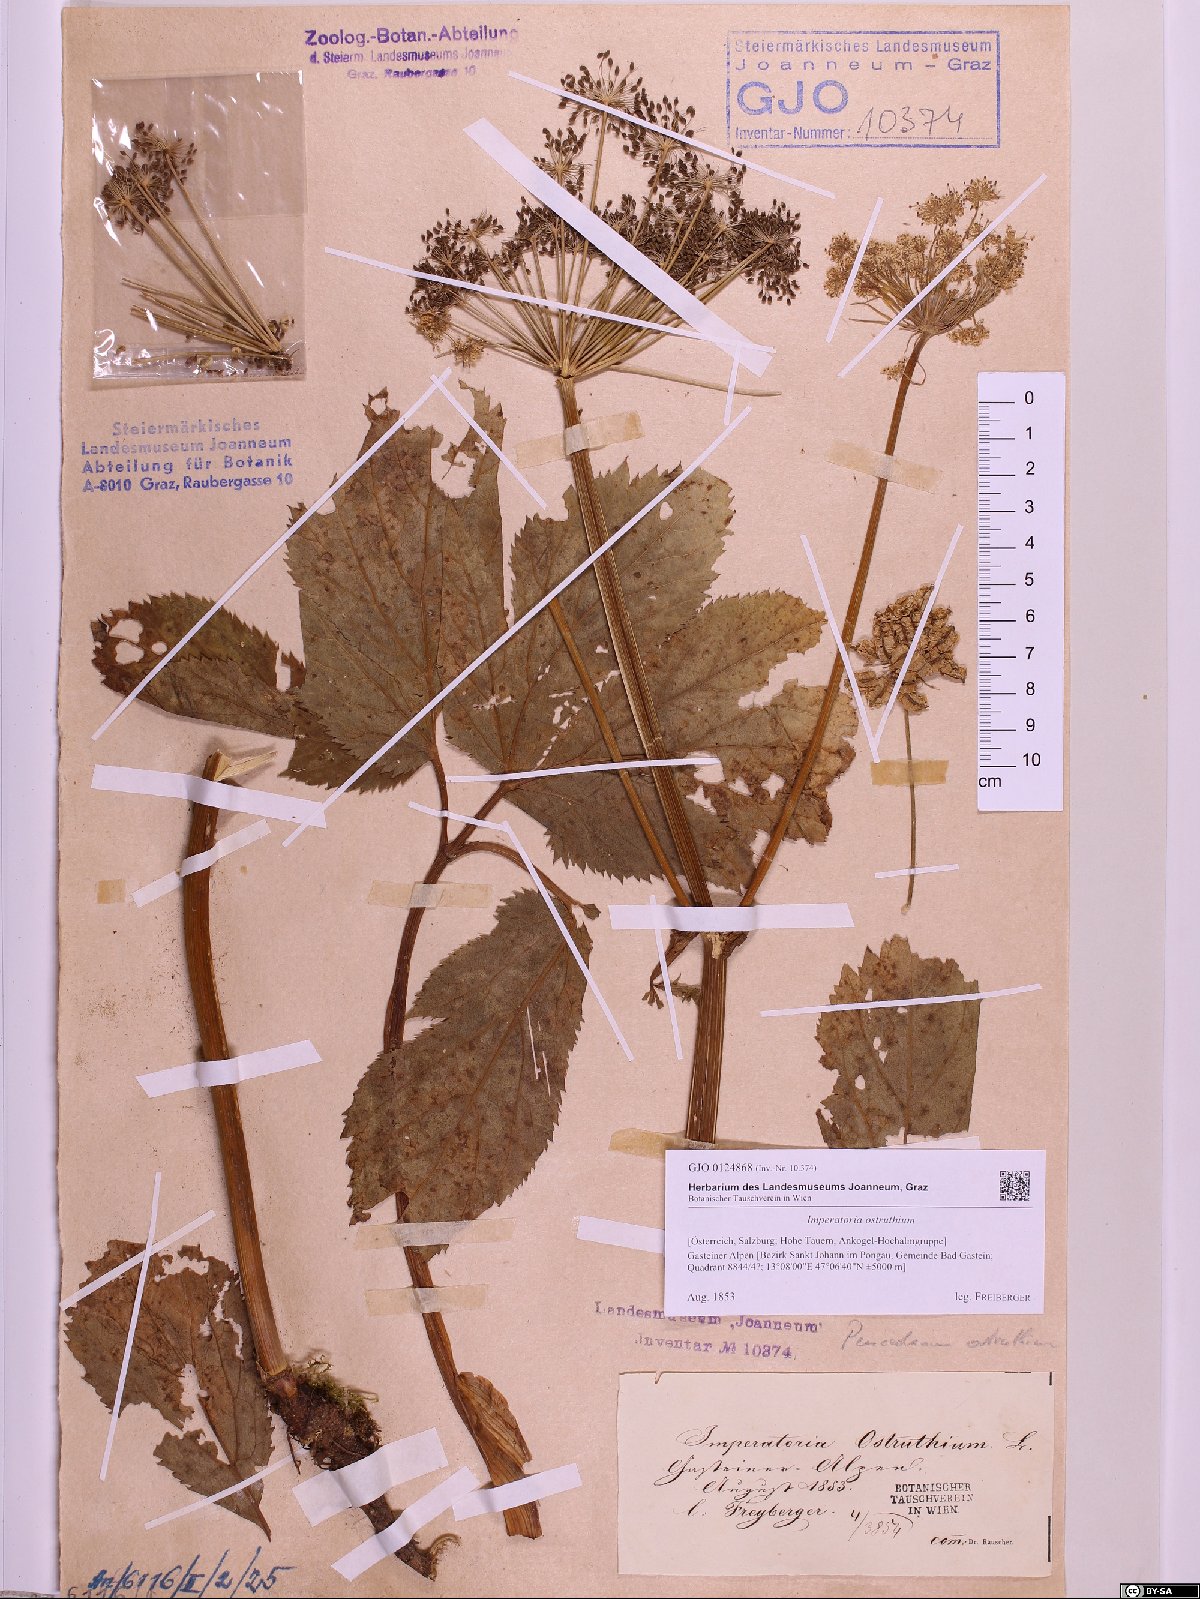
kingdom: Plantae
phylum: Tracheophyta
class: Magnoliopsida
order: Apiales
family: Apiaceae
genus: Imperatoria
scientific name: Imperatoria ostruthium
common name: Masterwort
